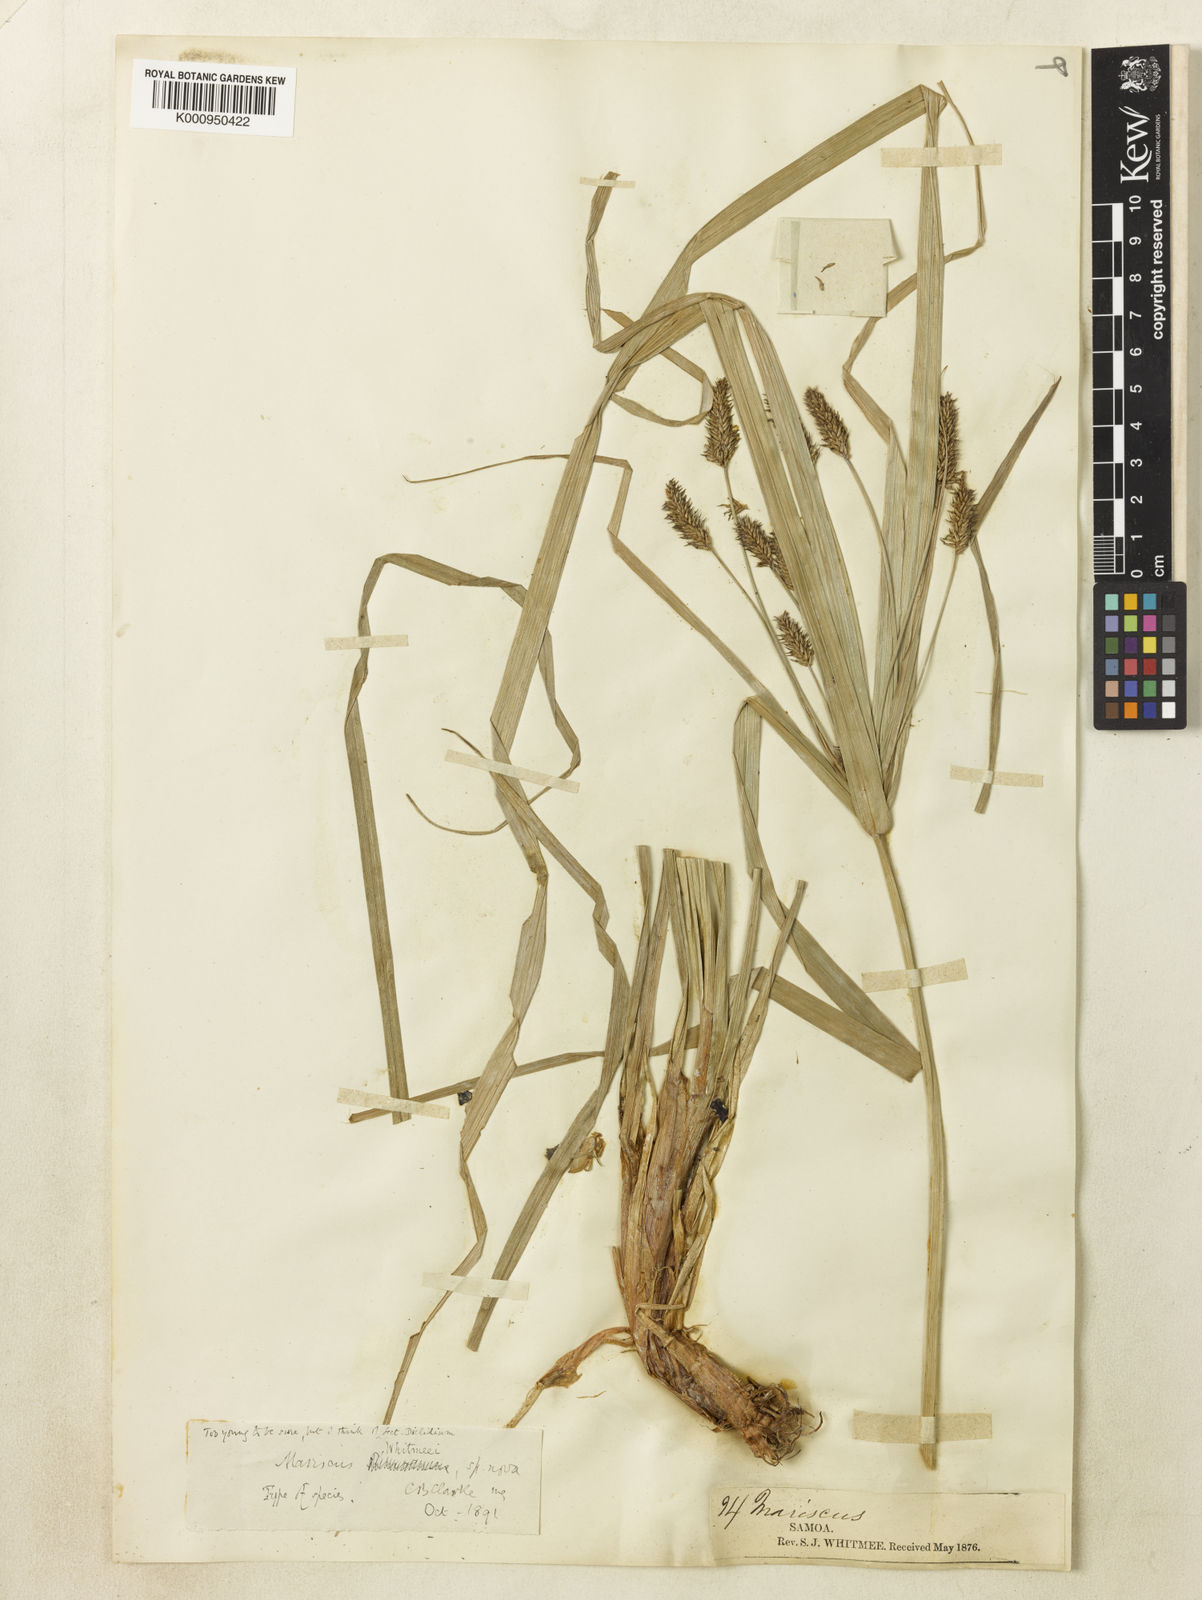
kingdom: Plantae
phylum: Tracheophyta
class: Liliopsida
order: Poales
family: Cyperaceae
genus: Cyperus
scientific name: Cyperus
